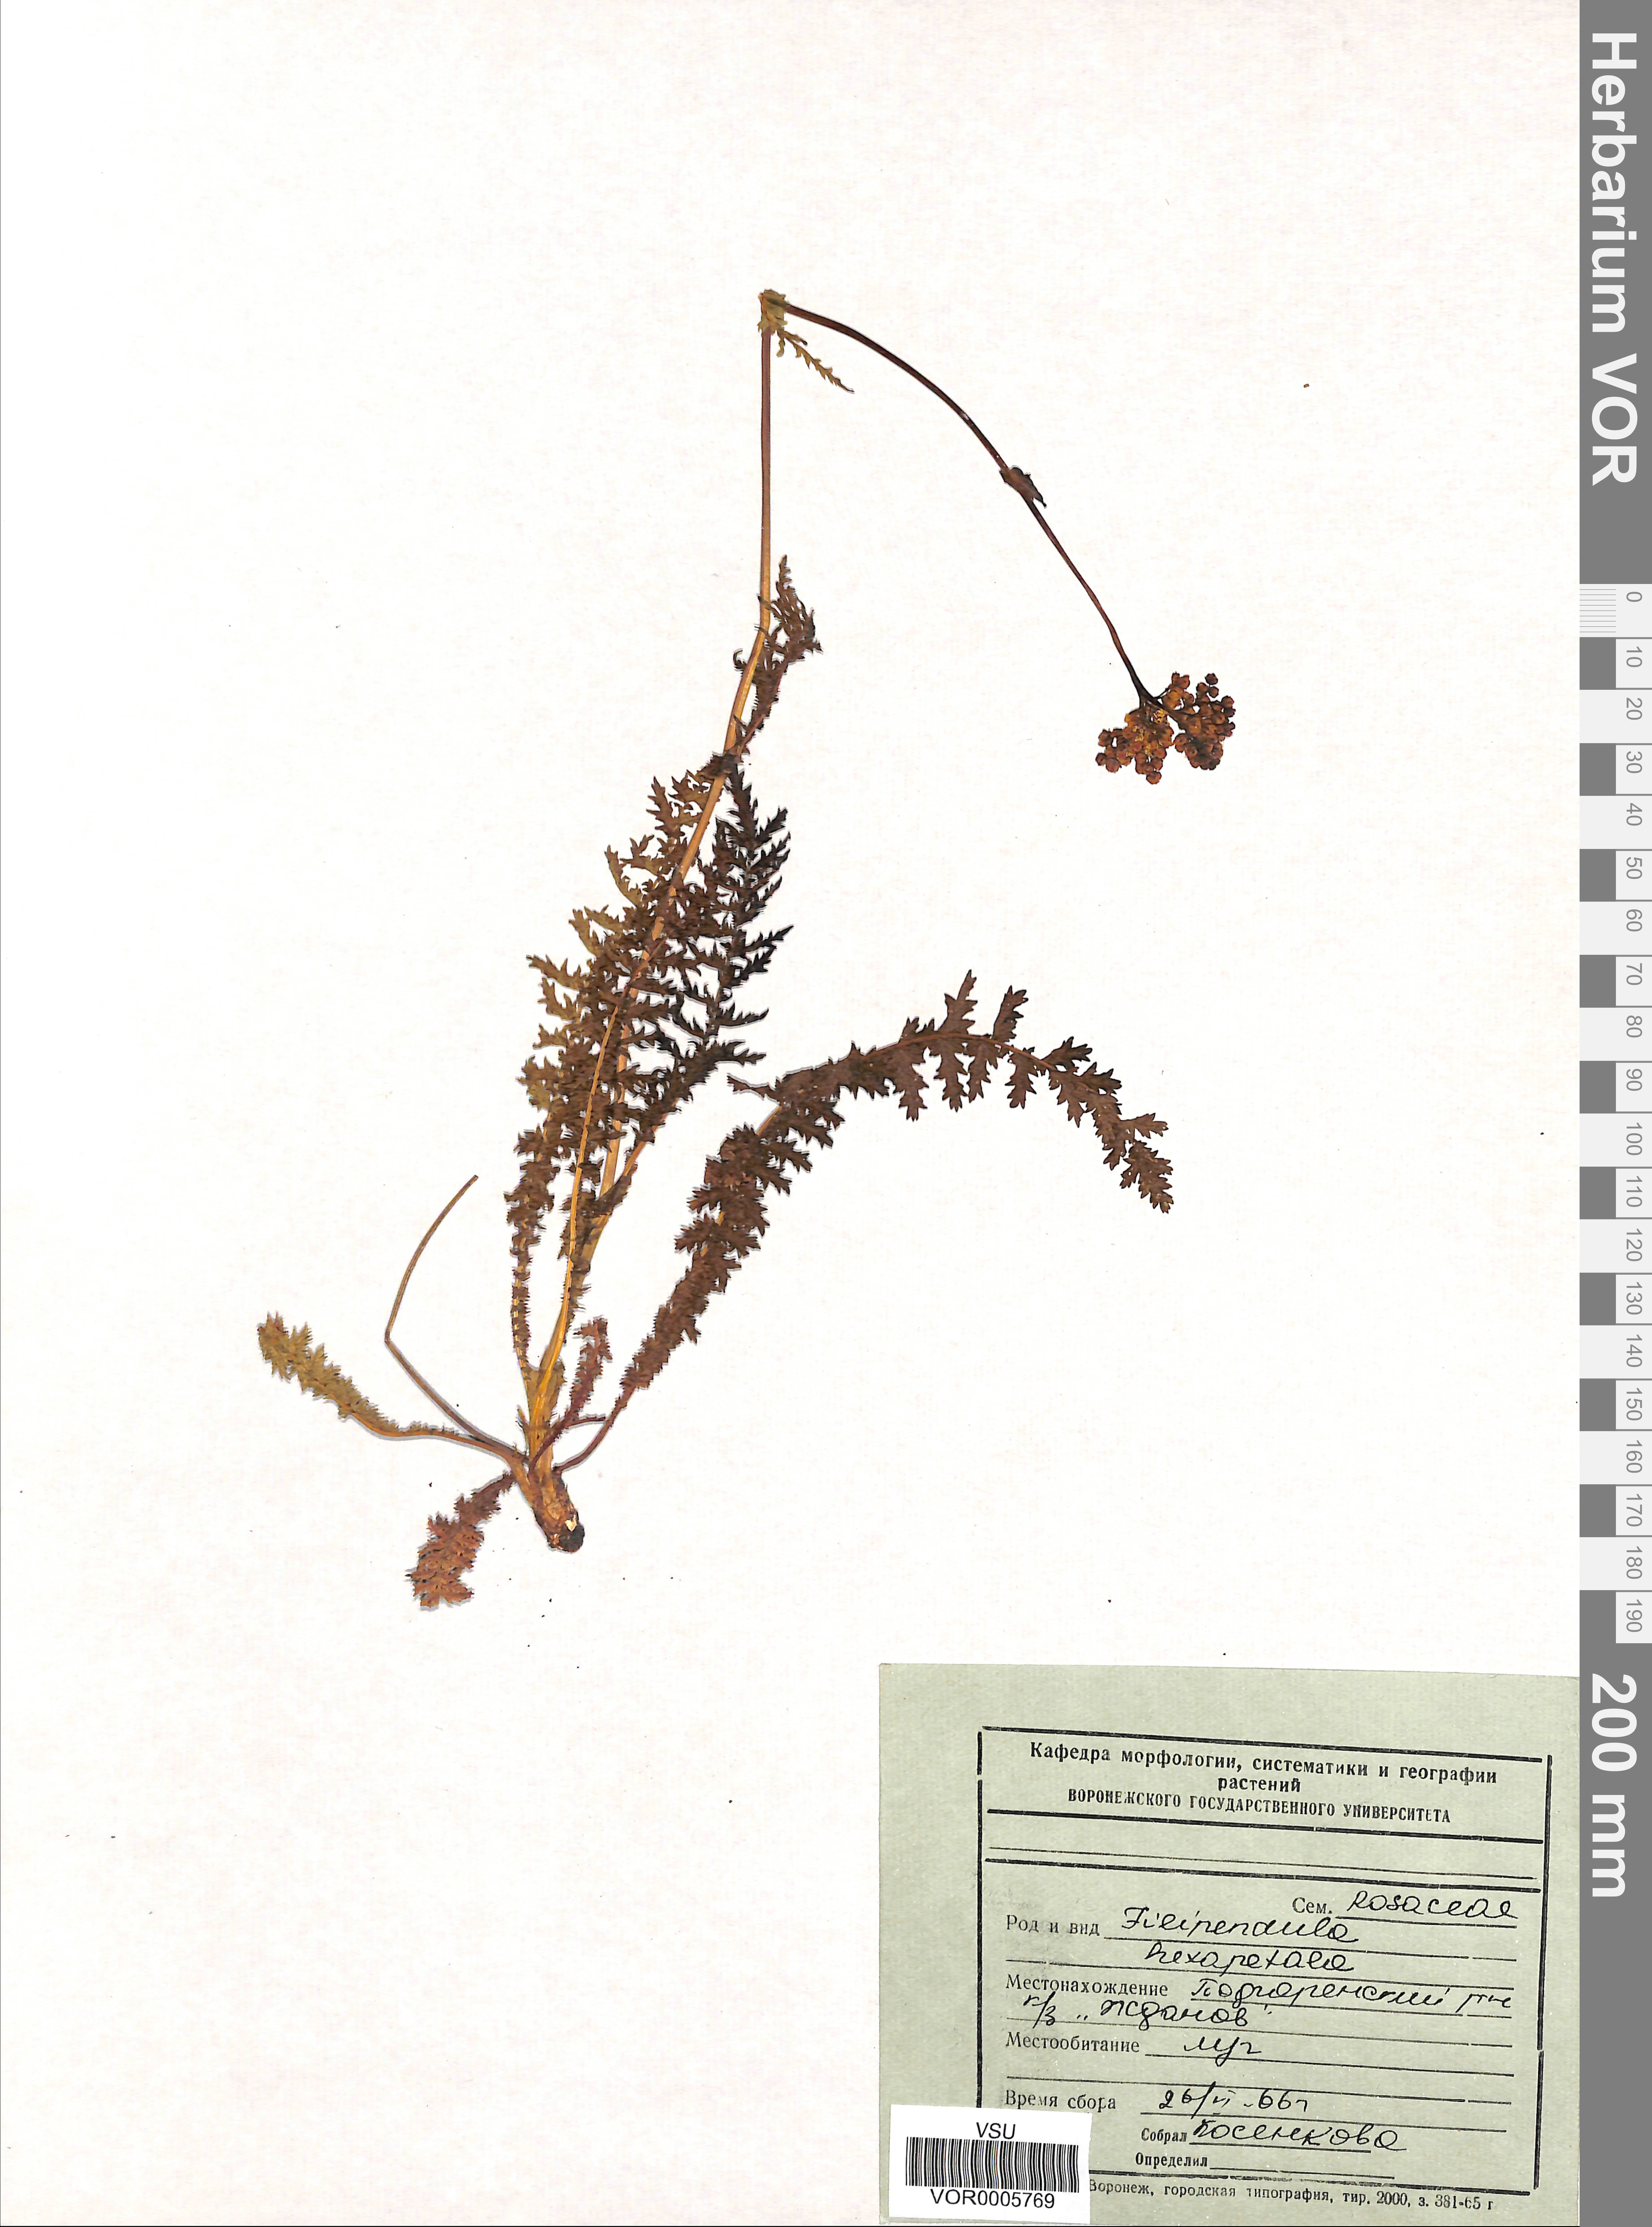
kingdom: Plantae
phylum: Tracheophyta
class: Magnoliopsida
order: Rosales
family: Rosaceae
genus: Filipendula
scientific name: Filipendula vulgaris
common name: Dropwort
